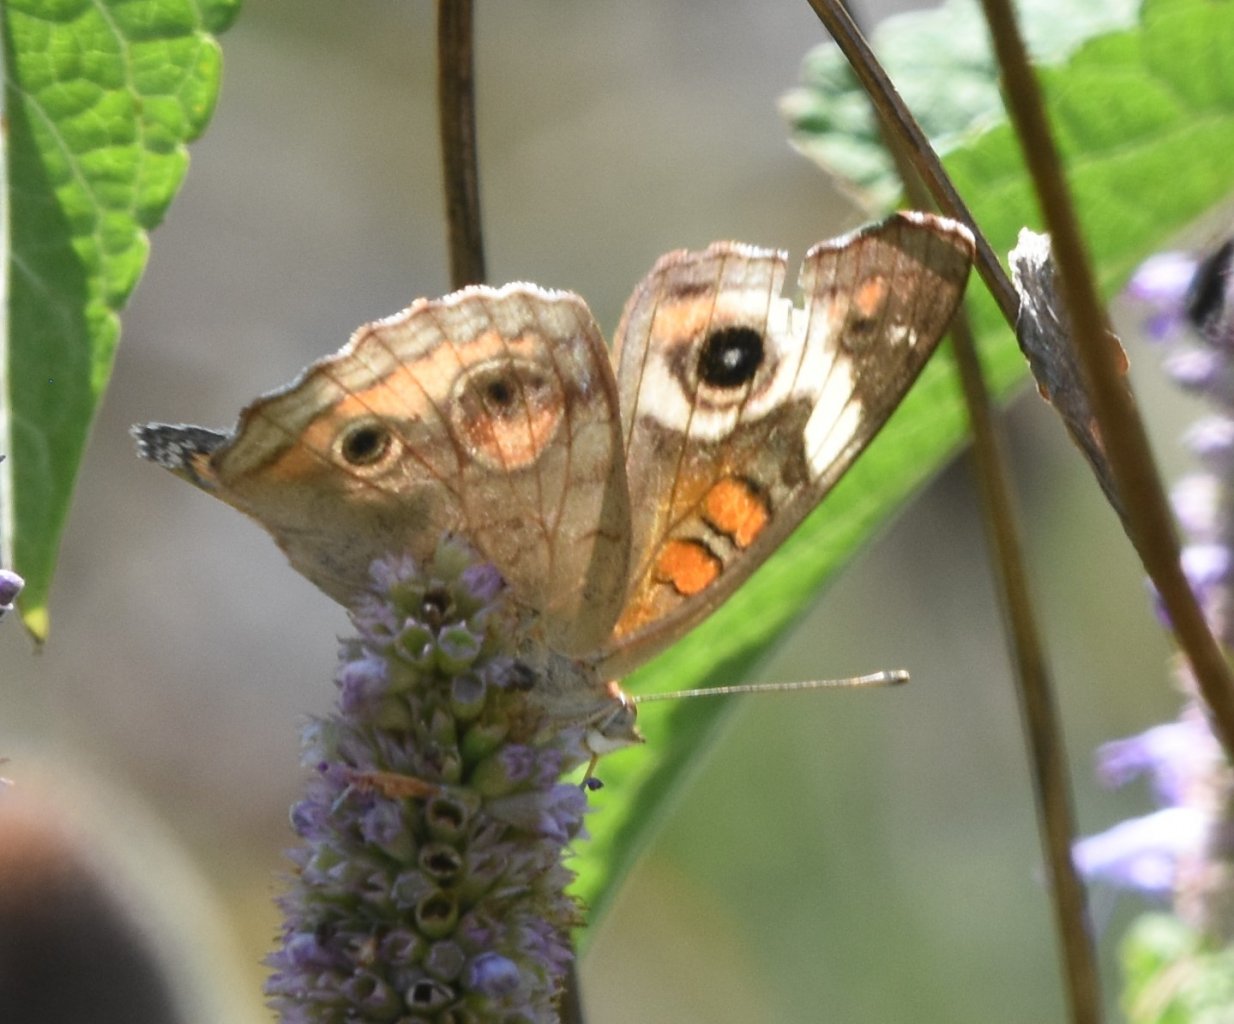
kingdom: Animalia
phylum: Arthropoda
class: Insecta
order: Lepidoptera
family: Nymphalidae
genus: Junonia
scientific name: Junonia coenia
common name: Common Buckeye
